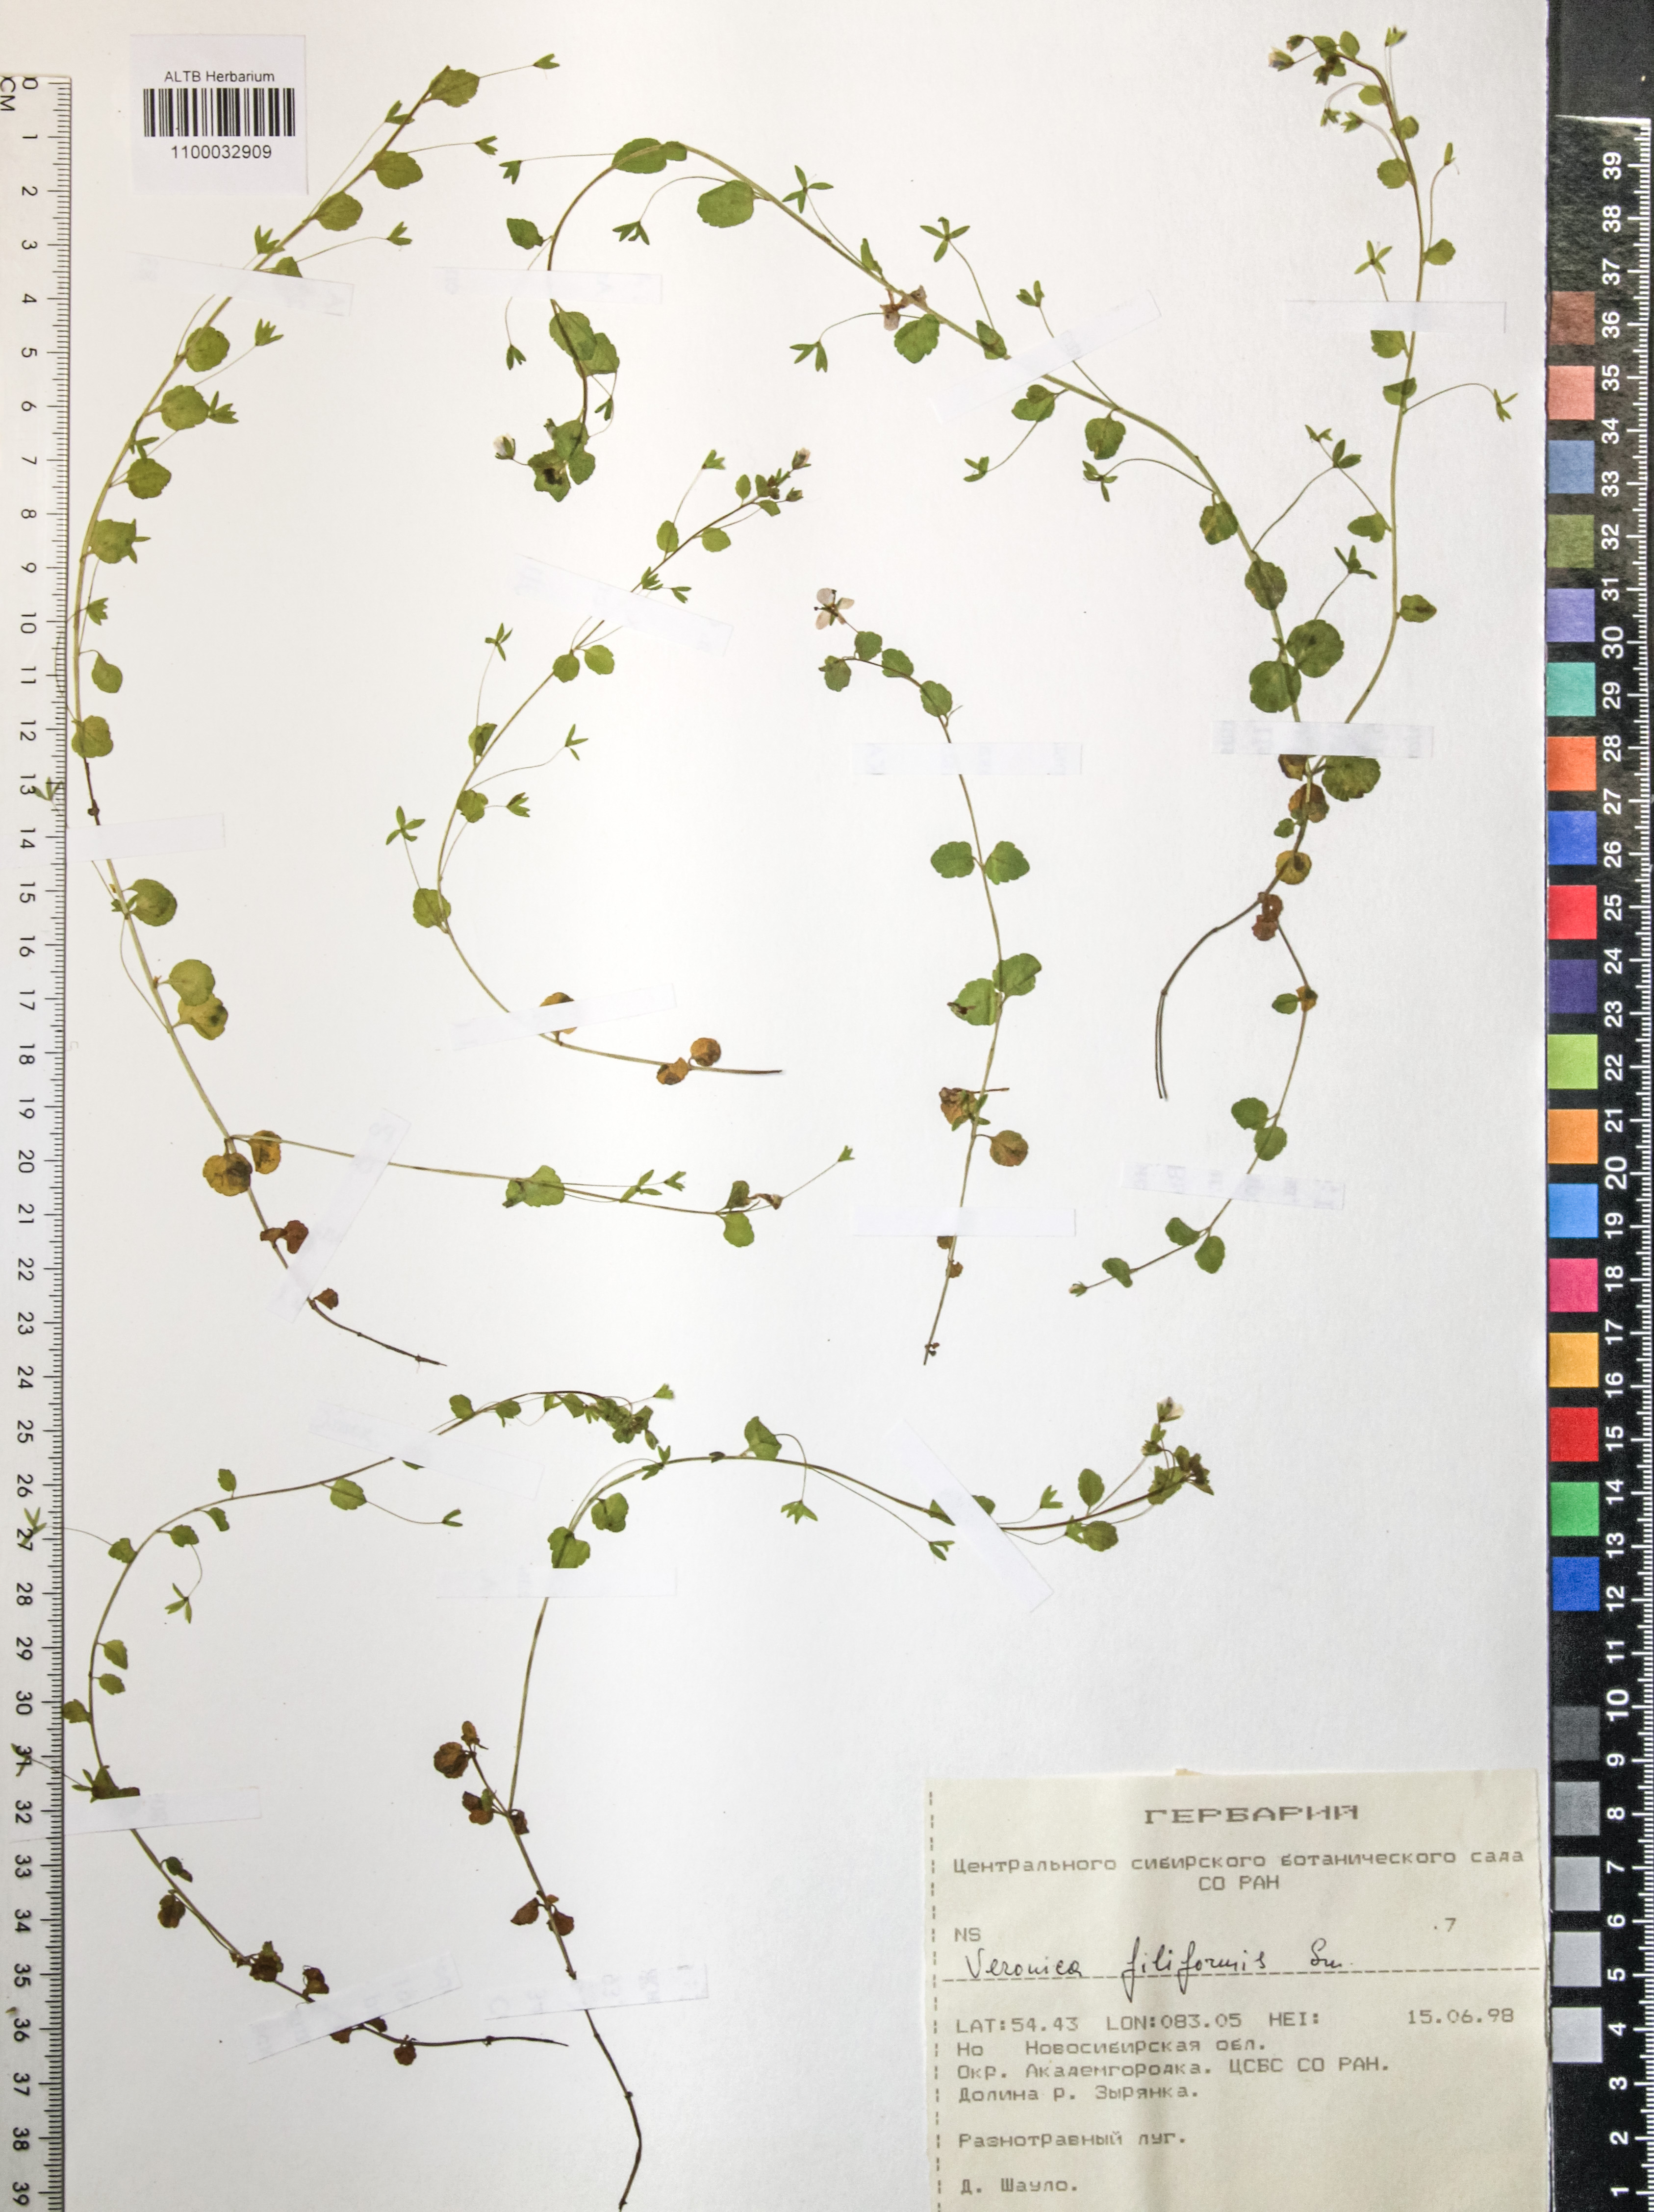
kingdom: Plantae
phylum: Tracheophyta
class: Magnoliopsida
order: Lamiales
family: Plantaginaceae
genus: Veronica
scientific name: Veronica filiformis
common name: Slender speedwell
